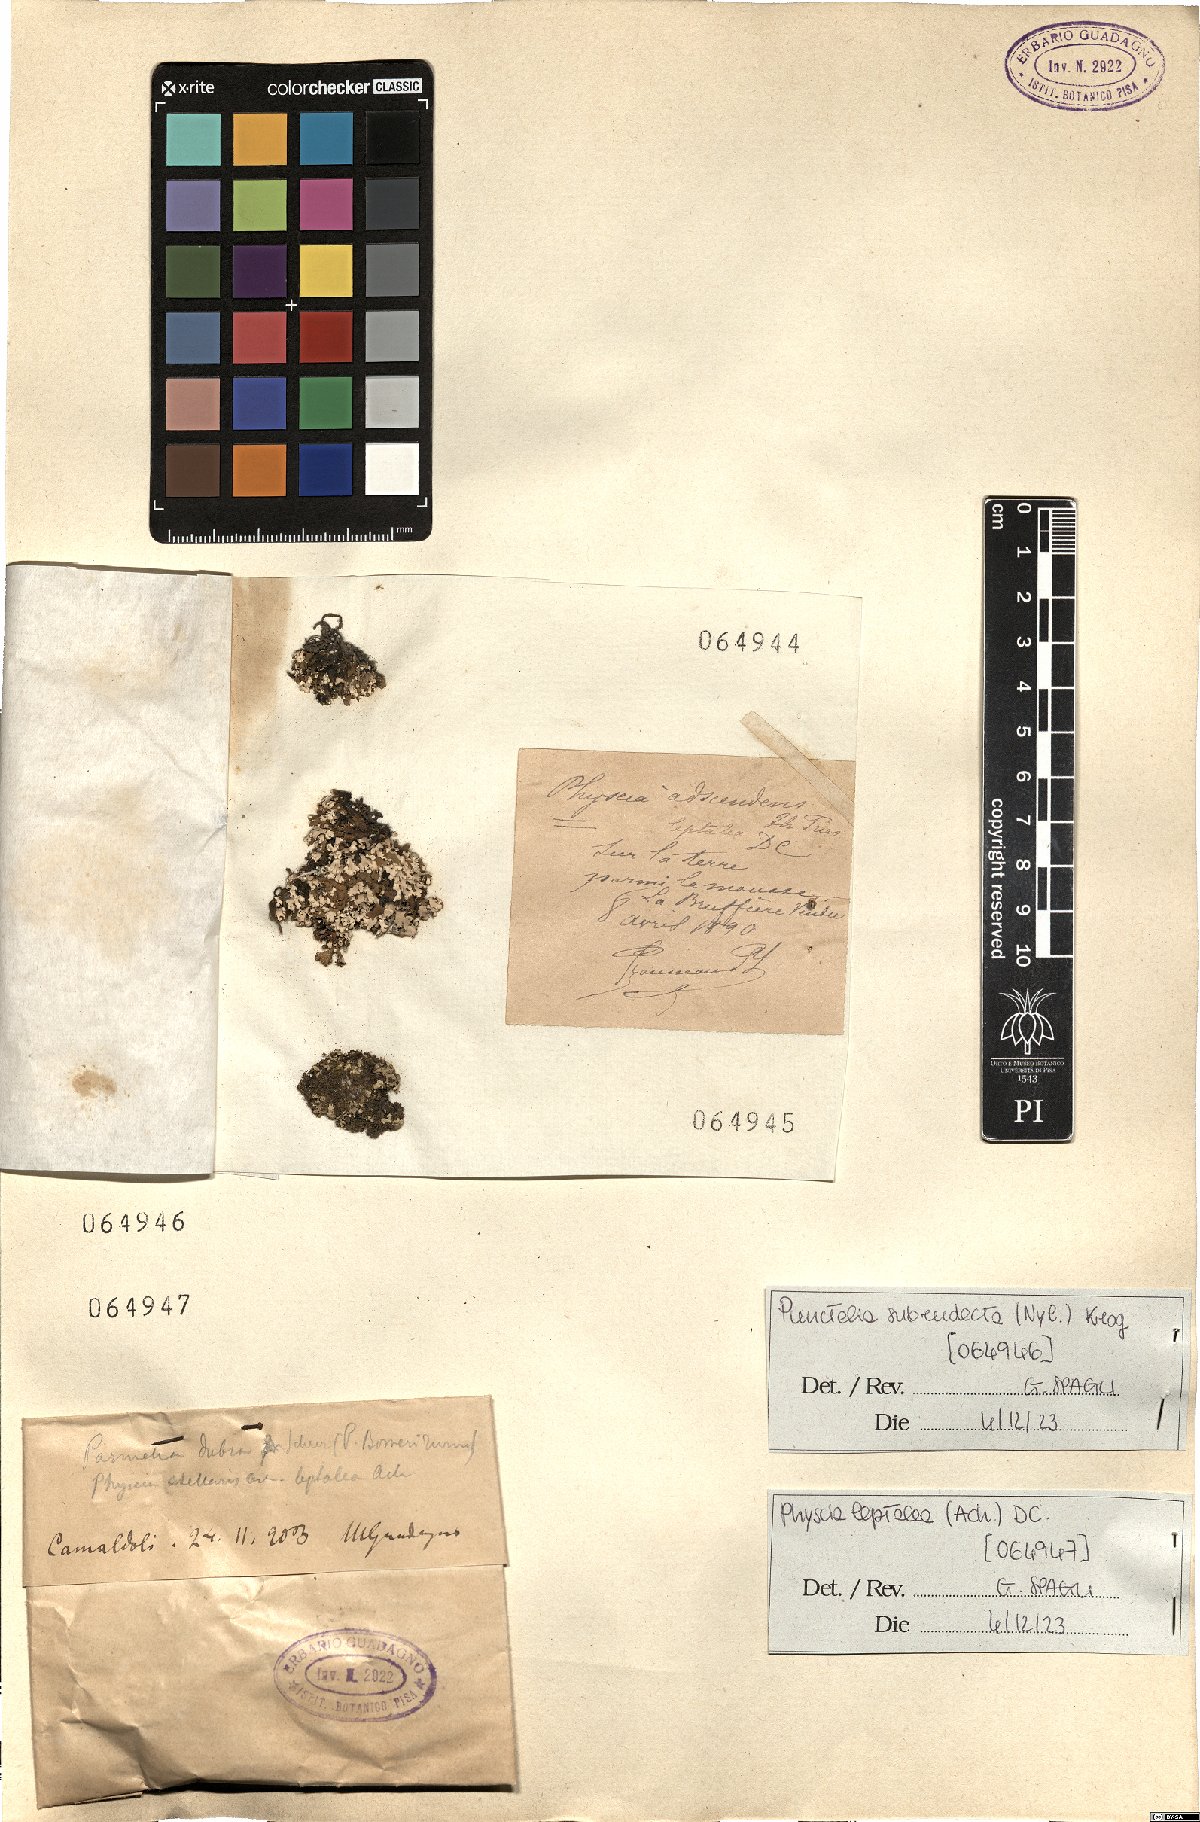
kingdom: Fungi
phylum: Ascomycota
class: Lecanoromycetes
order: Caliciales
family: Physciaceae
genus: Physcia
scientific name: Physcia adscendens
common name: Hooded rosette lichen
